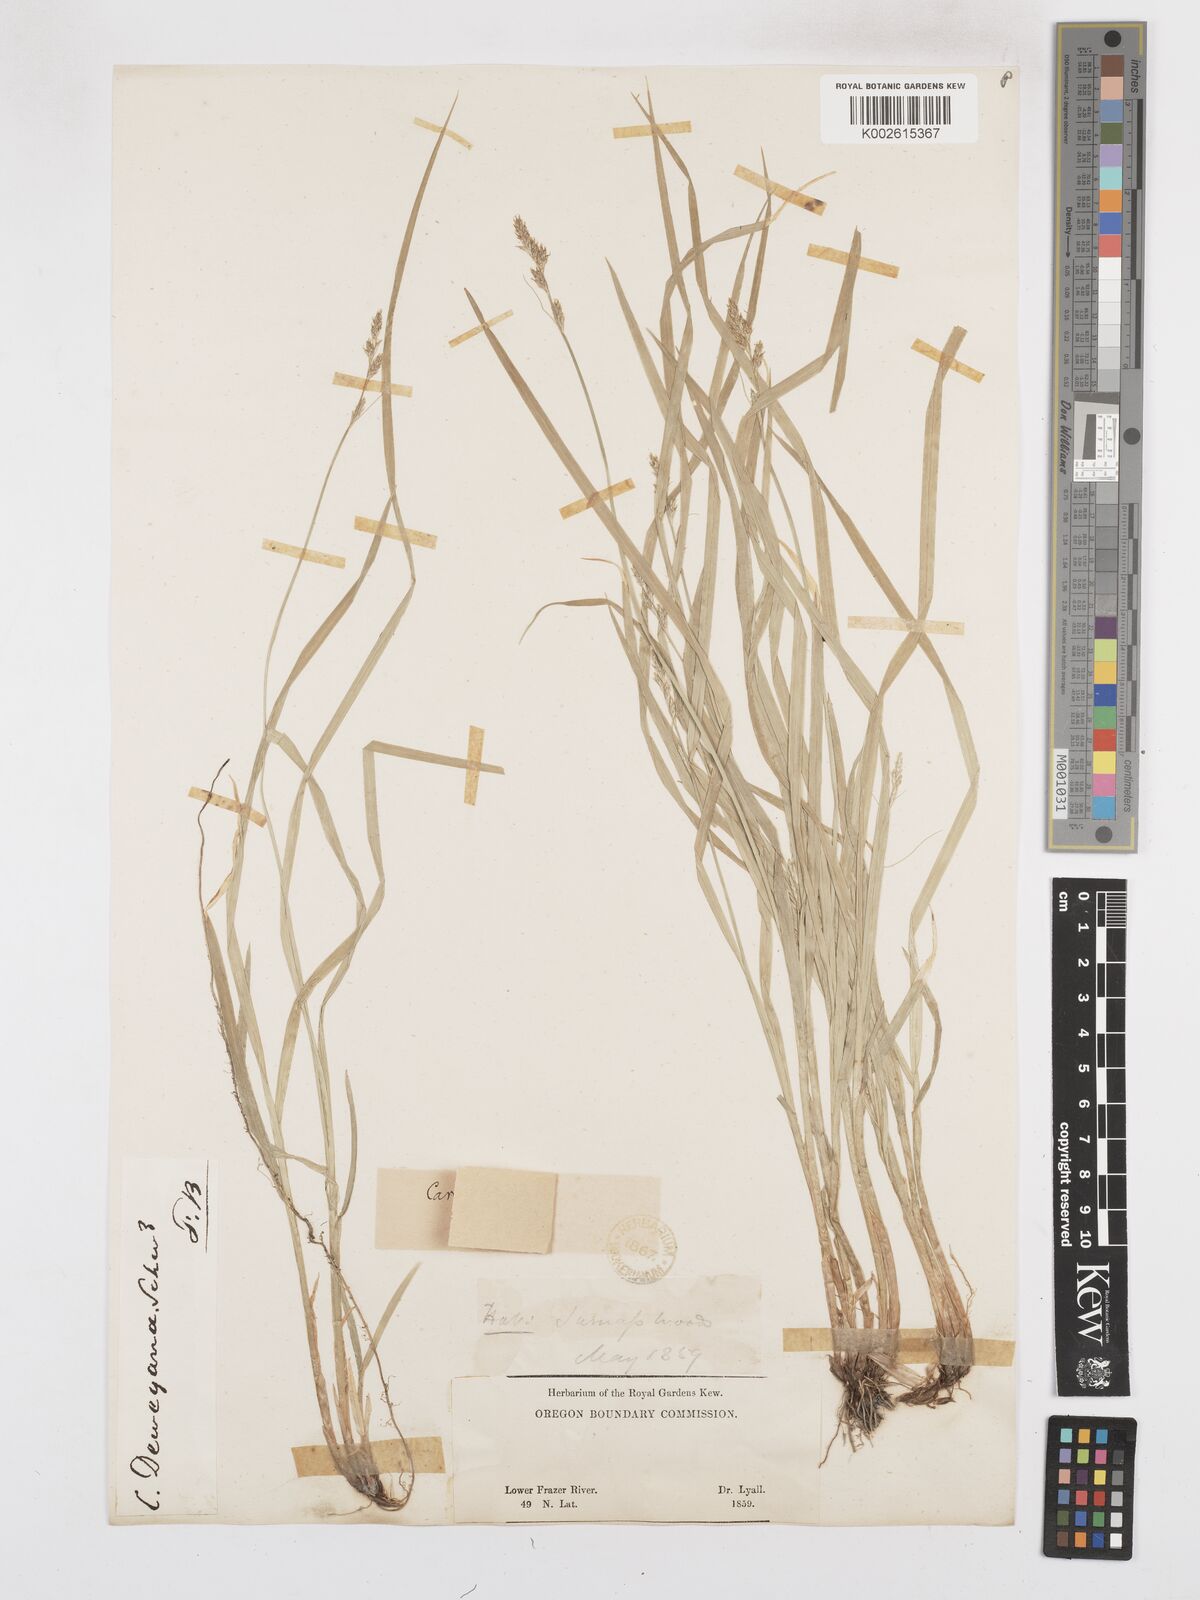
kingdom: Plantae
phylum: Tracheophyta
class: Liliopsida
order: Poales
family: Cyperaceae
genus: Carex
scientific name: Carex deweyana
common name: Dewey's sedge
